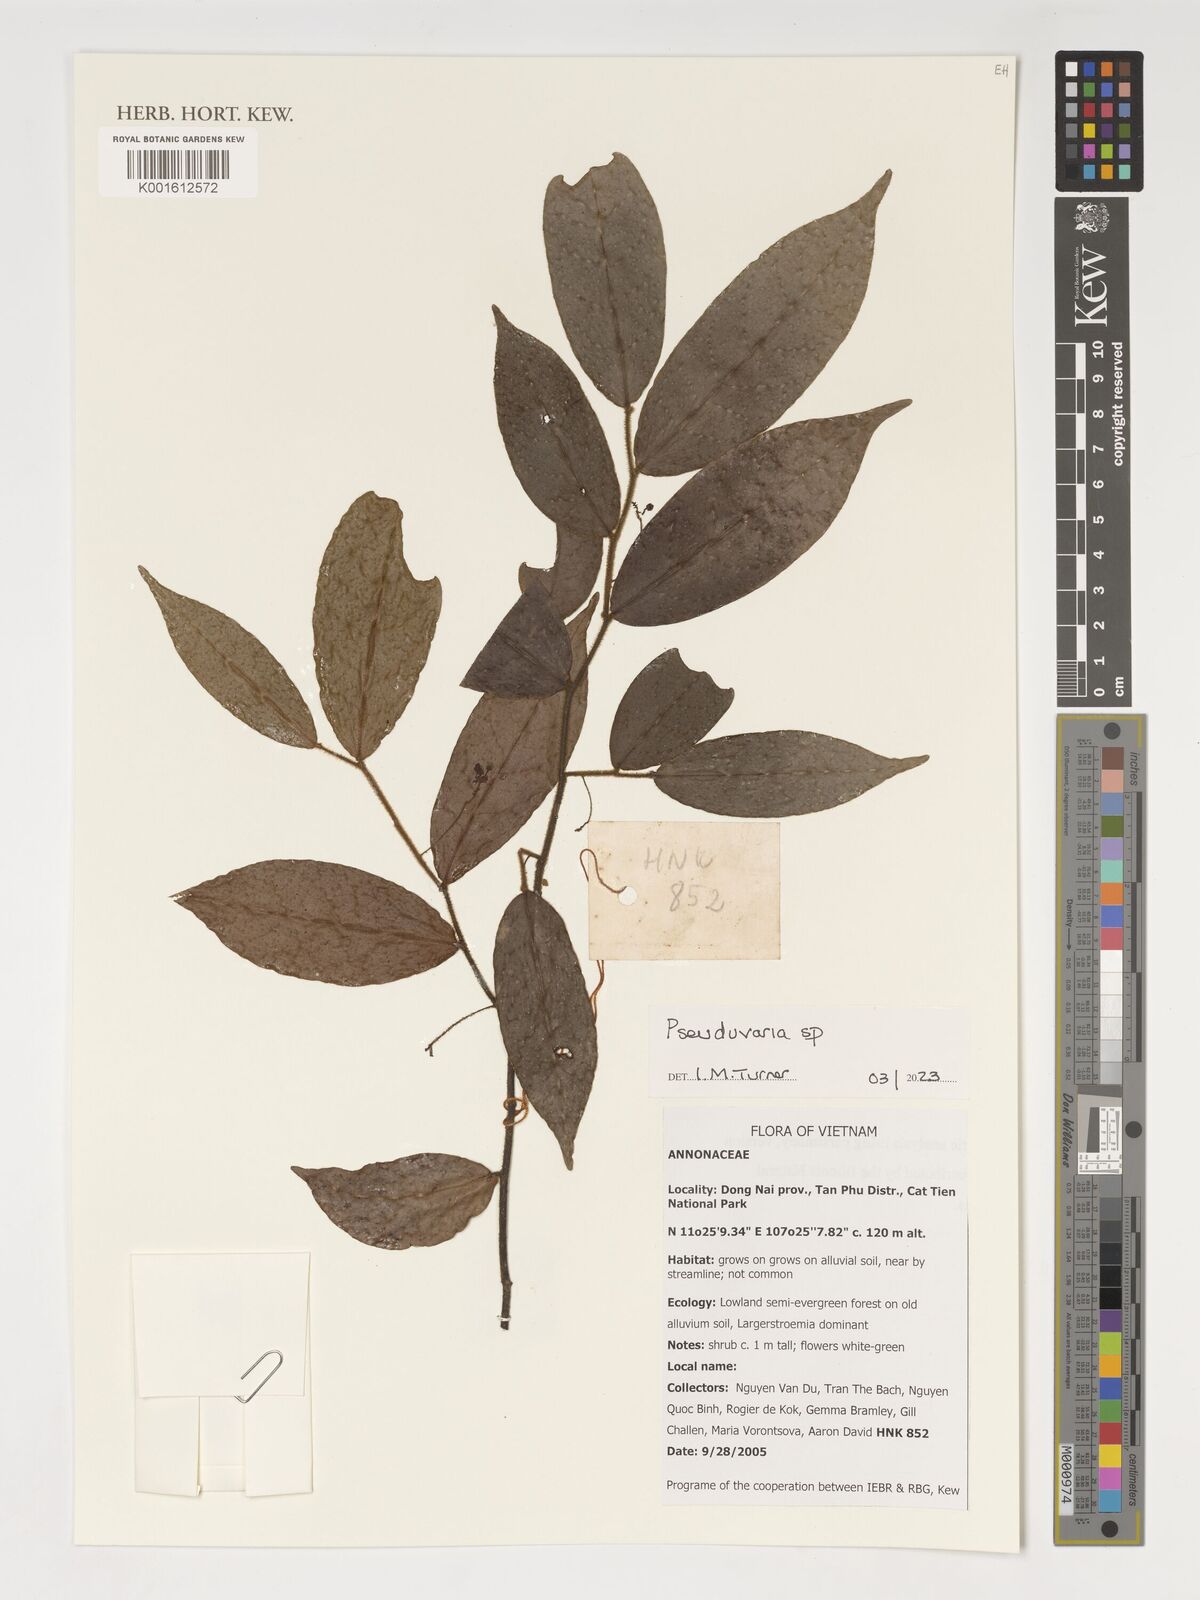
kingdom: Plantae
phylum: Tracheophyta
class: Magnoliopsida
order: Magnoliales
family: Annonaceae
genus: Pseuduvaria
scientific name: Pseuduvaria
